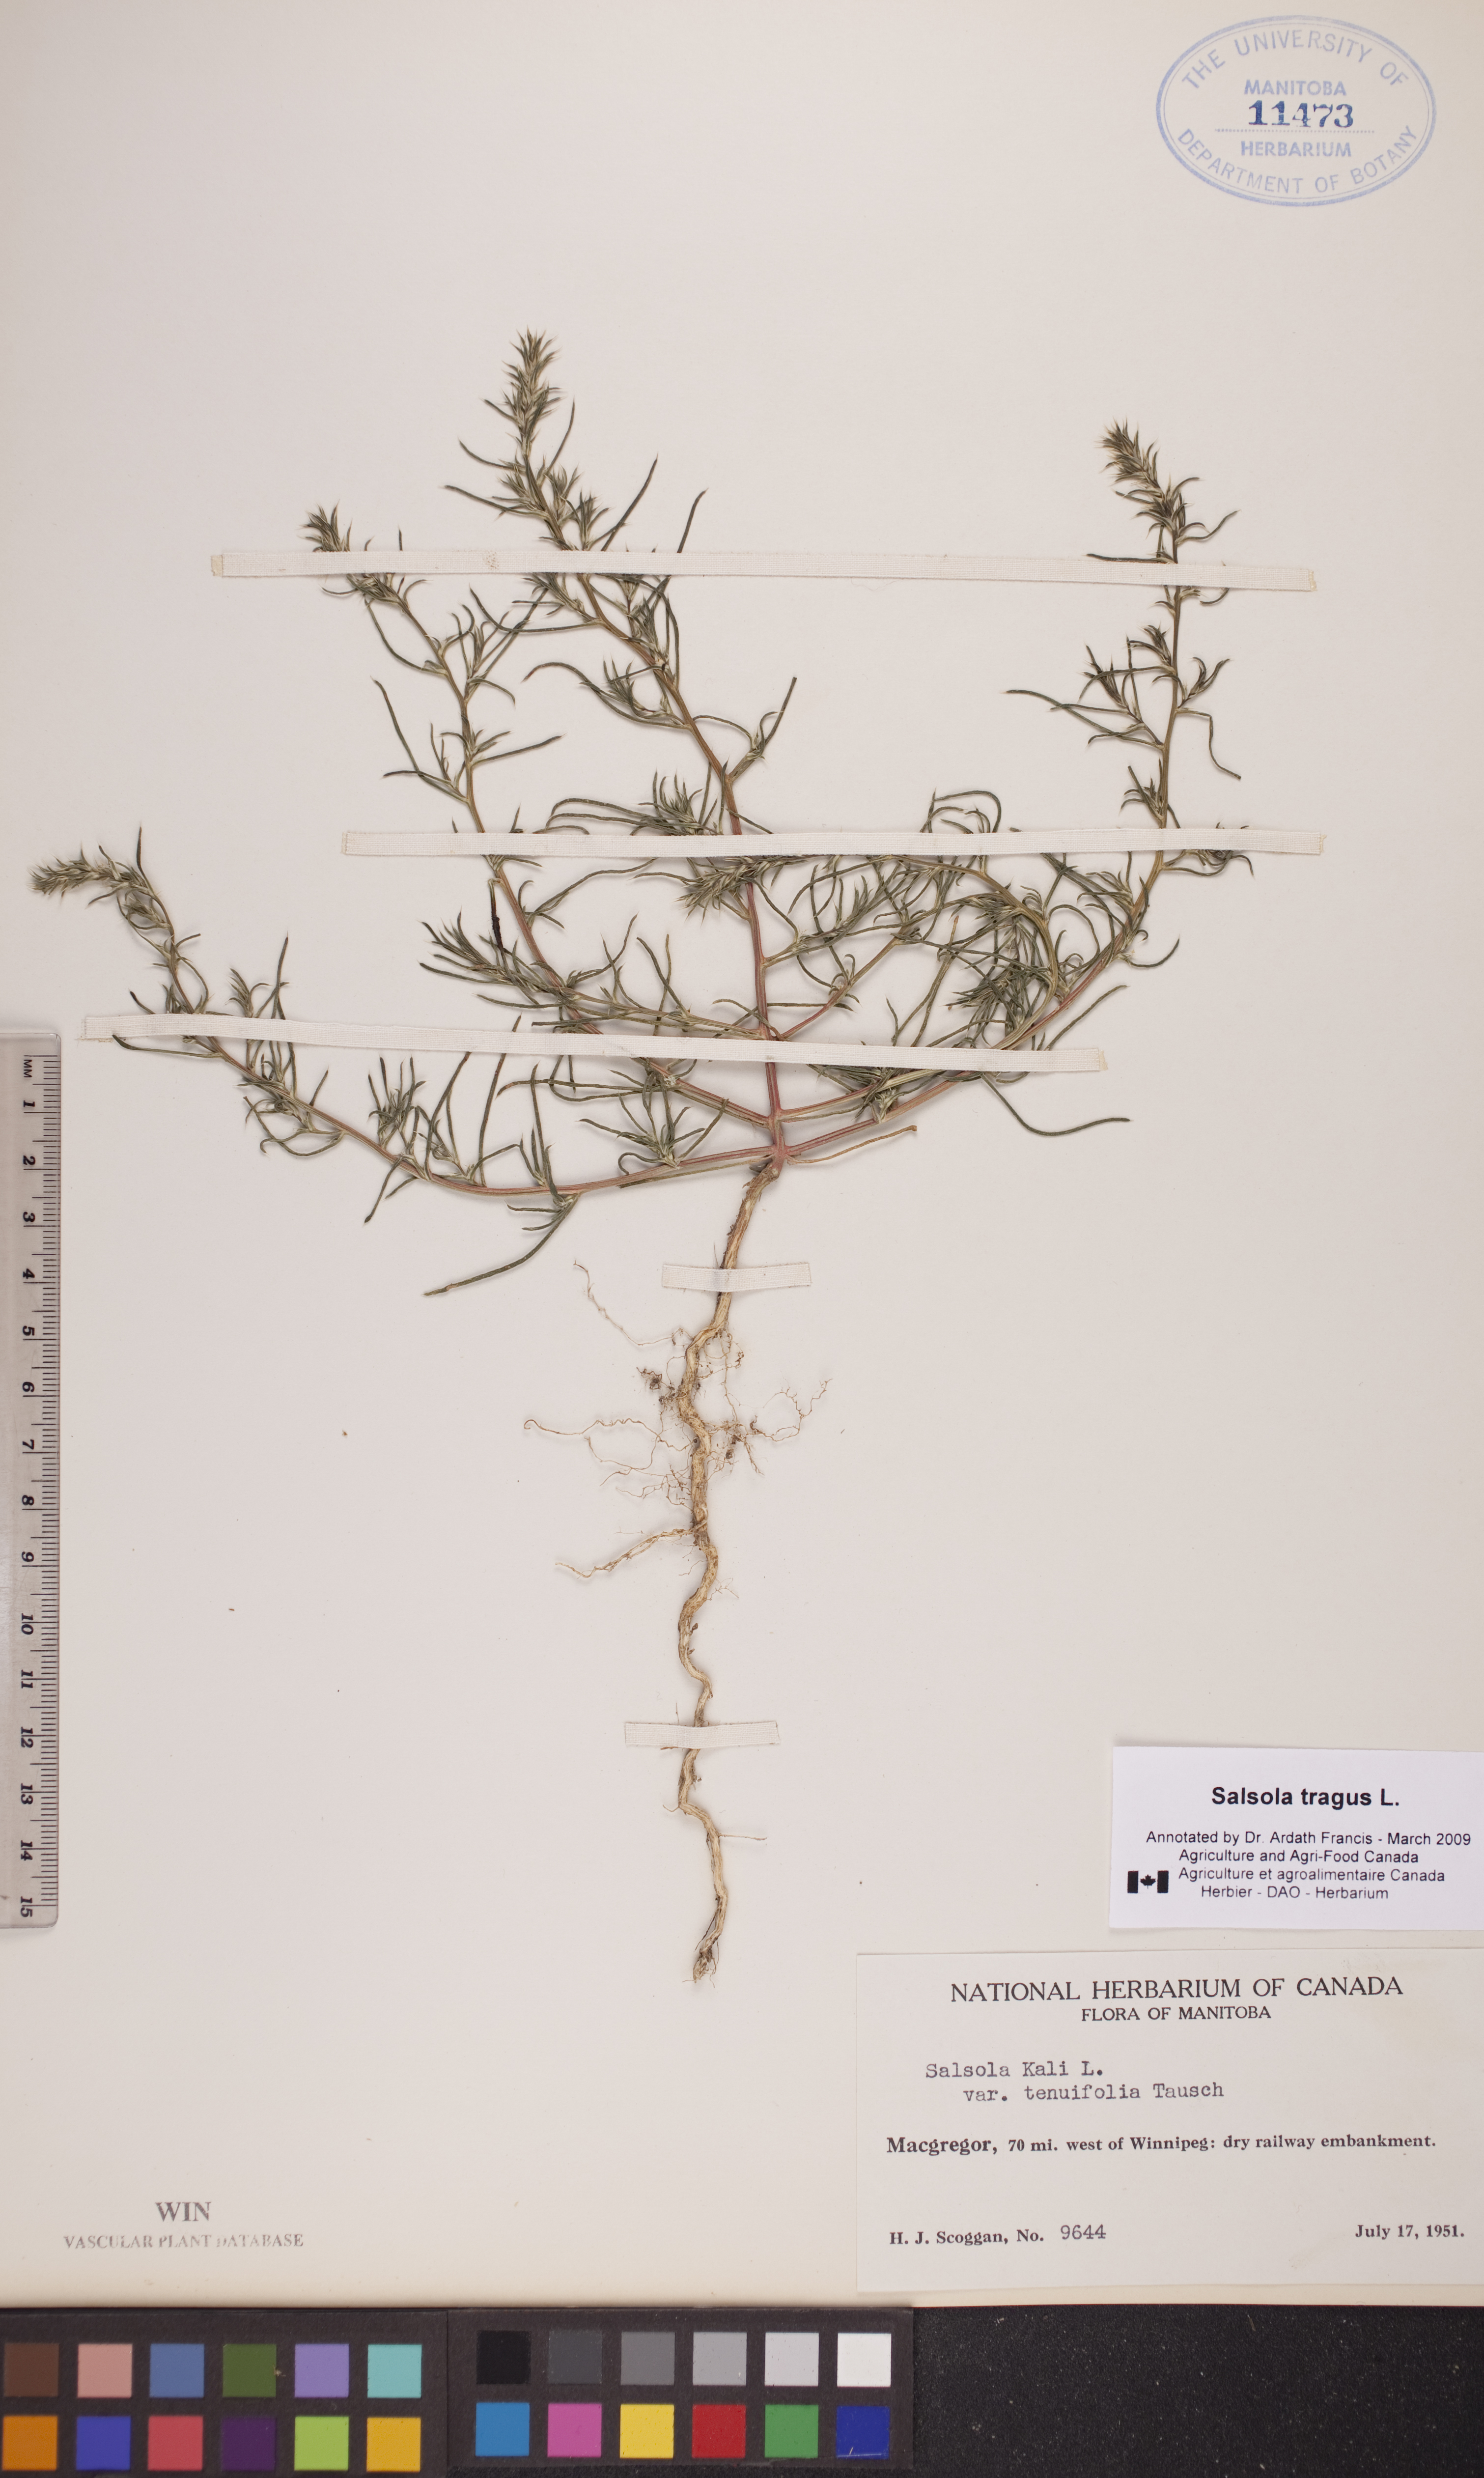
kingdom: Plantae
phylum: Tracheophyta
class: Magnoliopsida
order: Caryophyllales
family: Amaranthaceae
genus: Salsola
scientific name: Salsola tragus
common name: Prickly russian thistle
